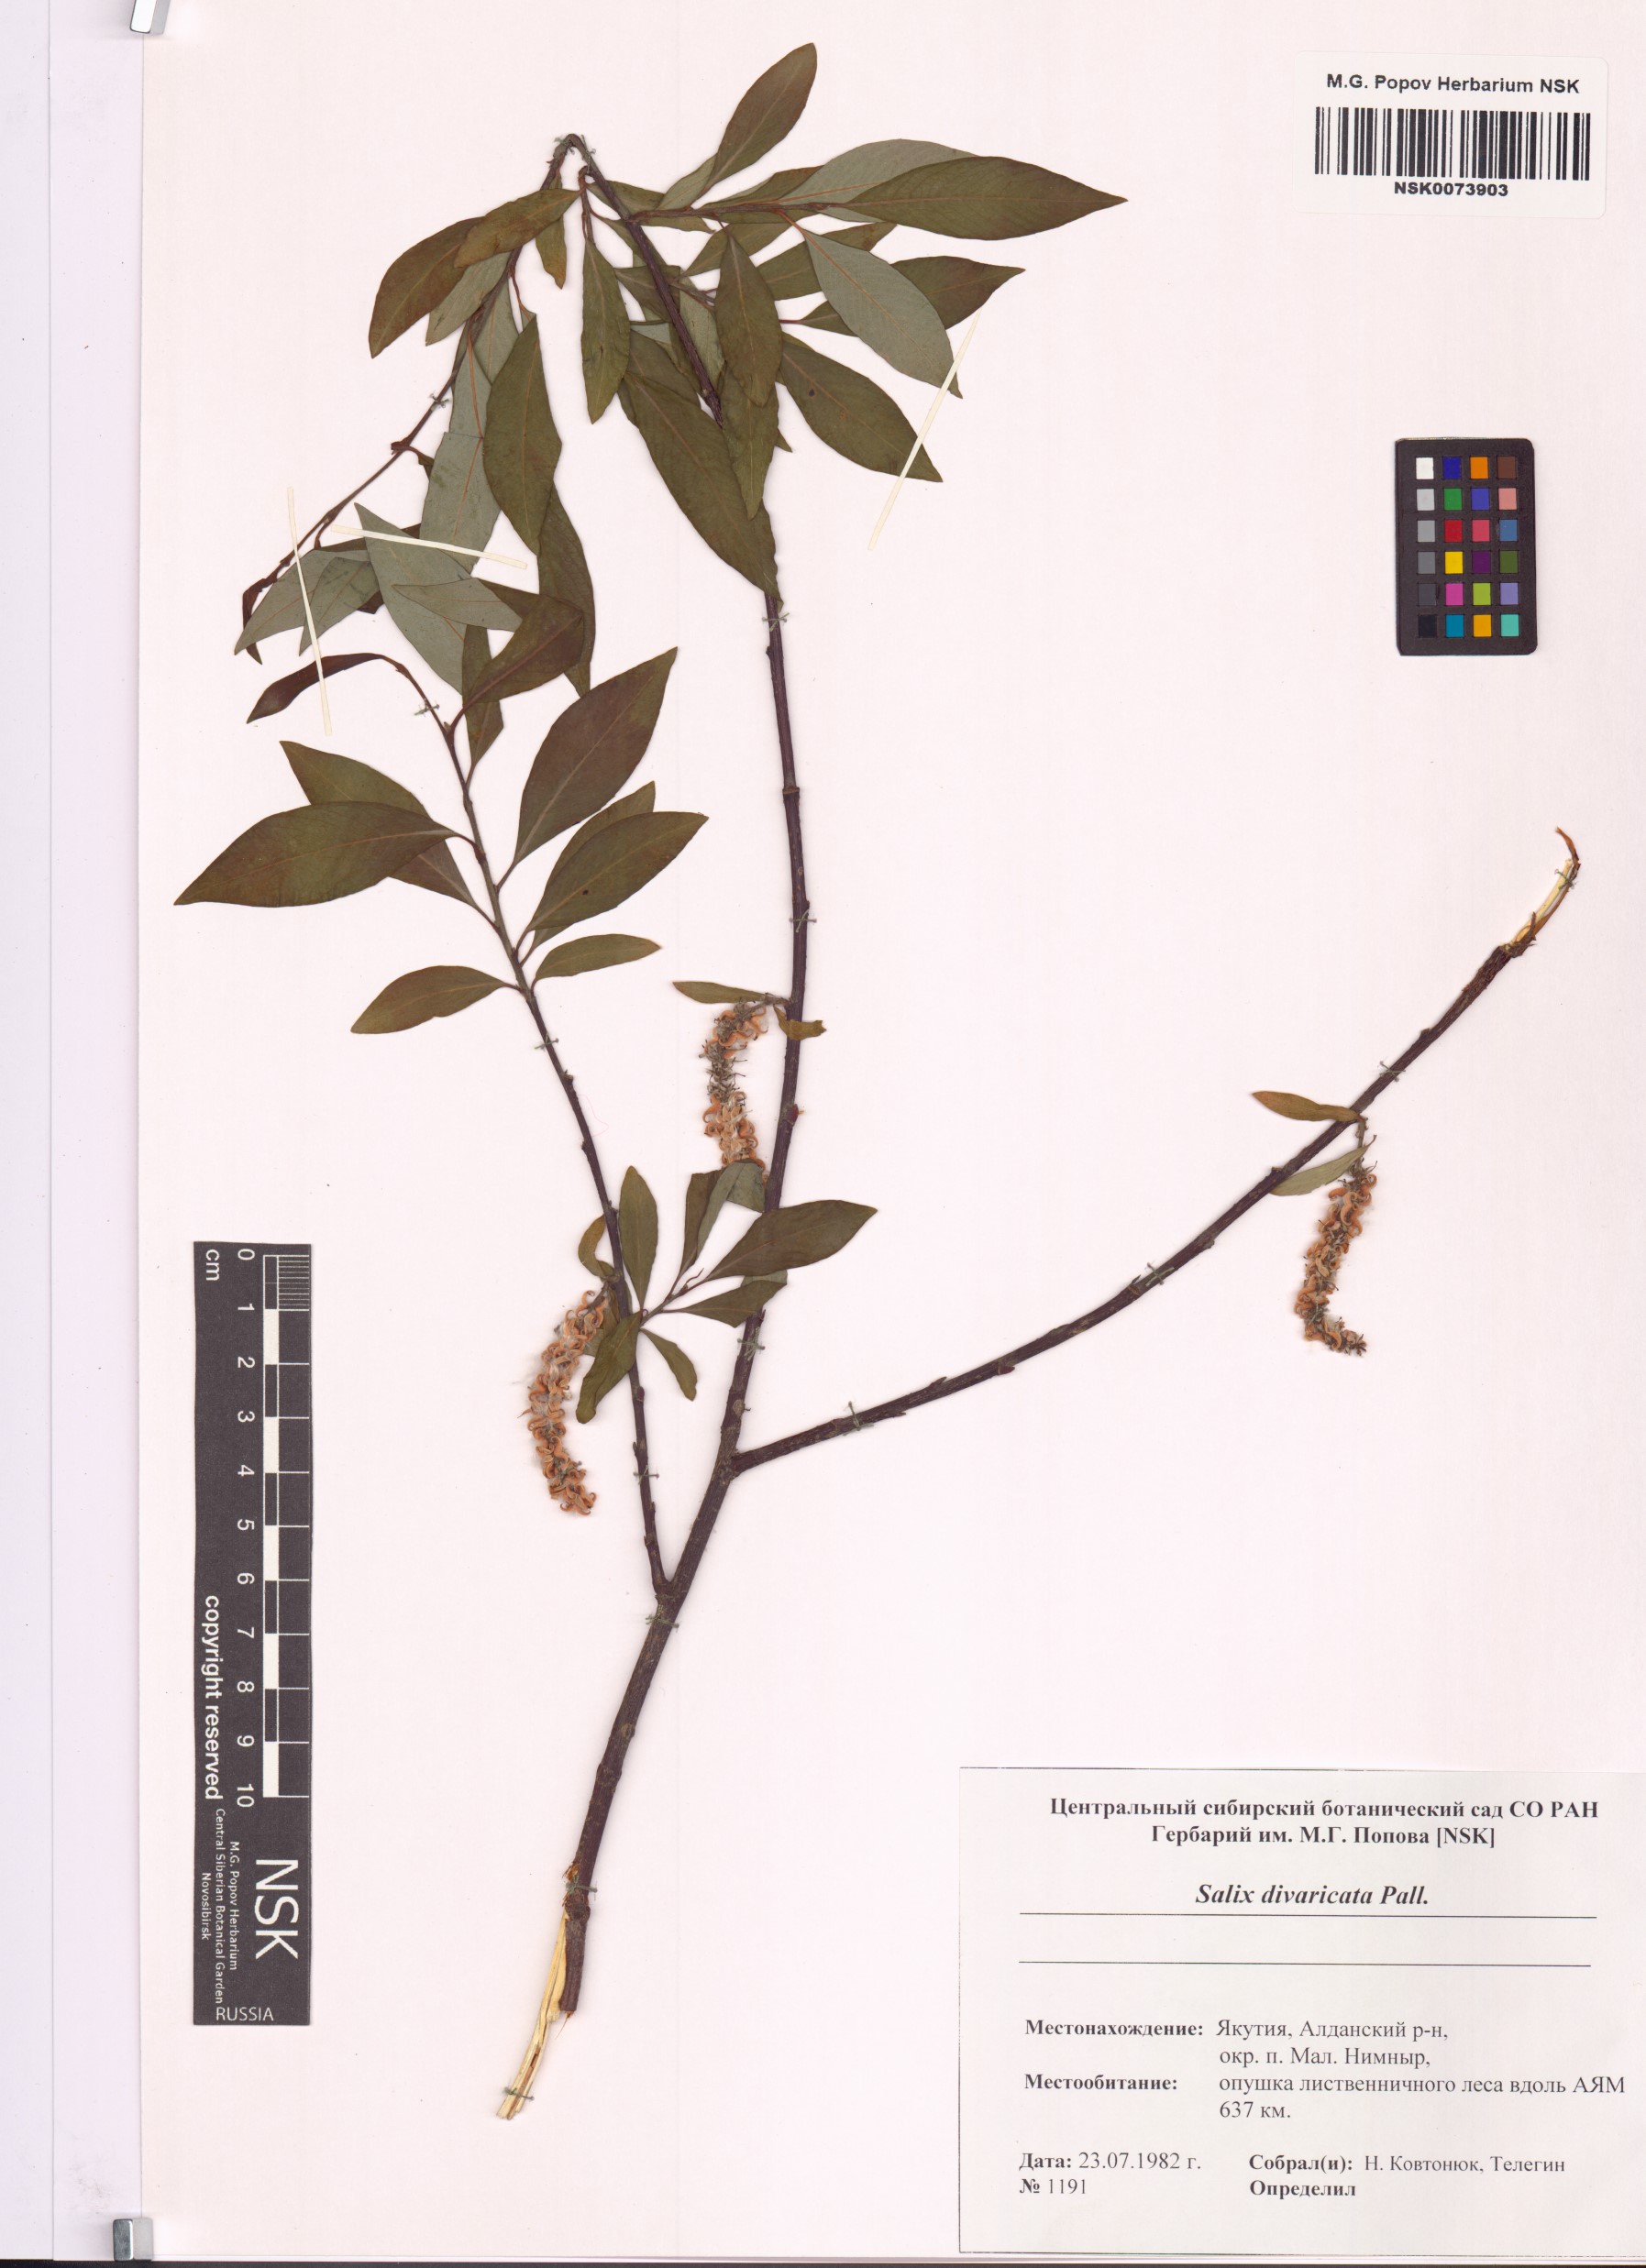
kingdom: Plantae
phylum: Tracheophyta
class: Magnoliopsida
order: Malpighiales
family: Salicaceae
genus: Salix
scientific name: Salix divaricata
